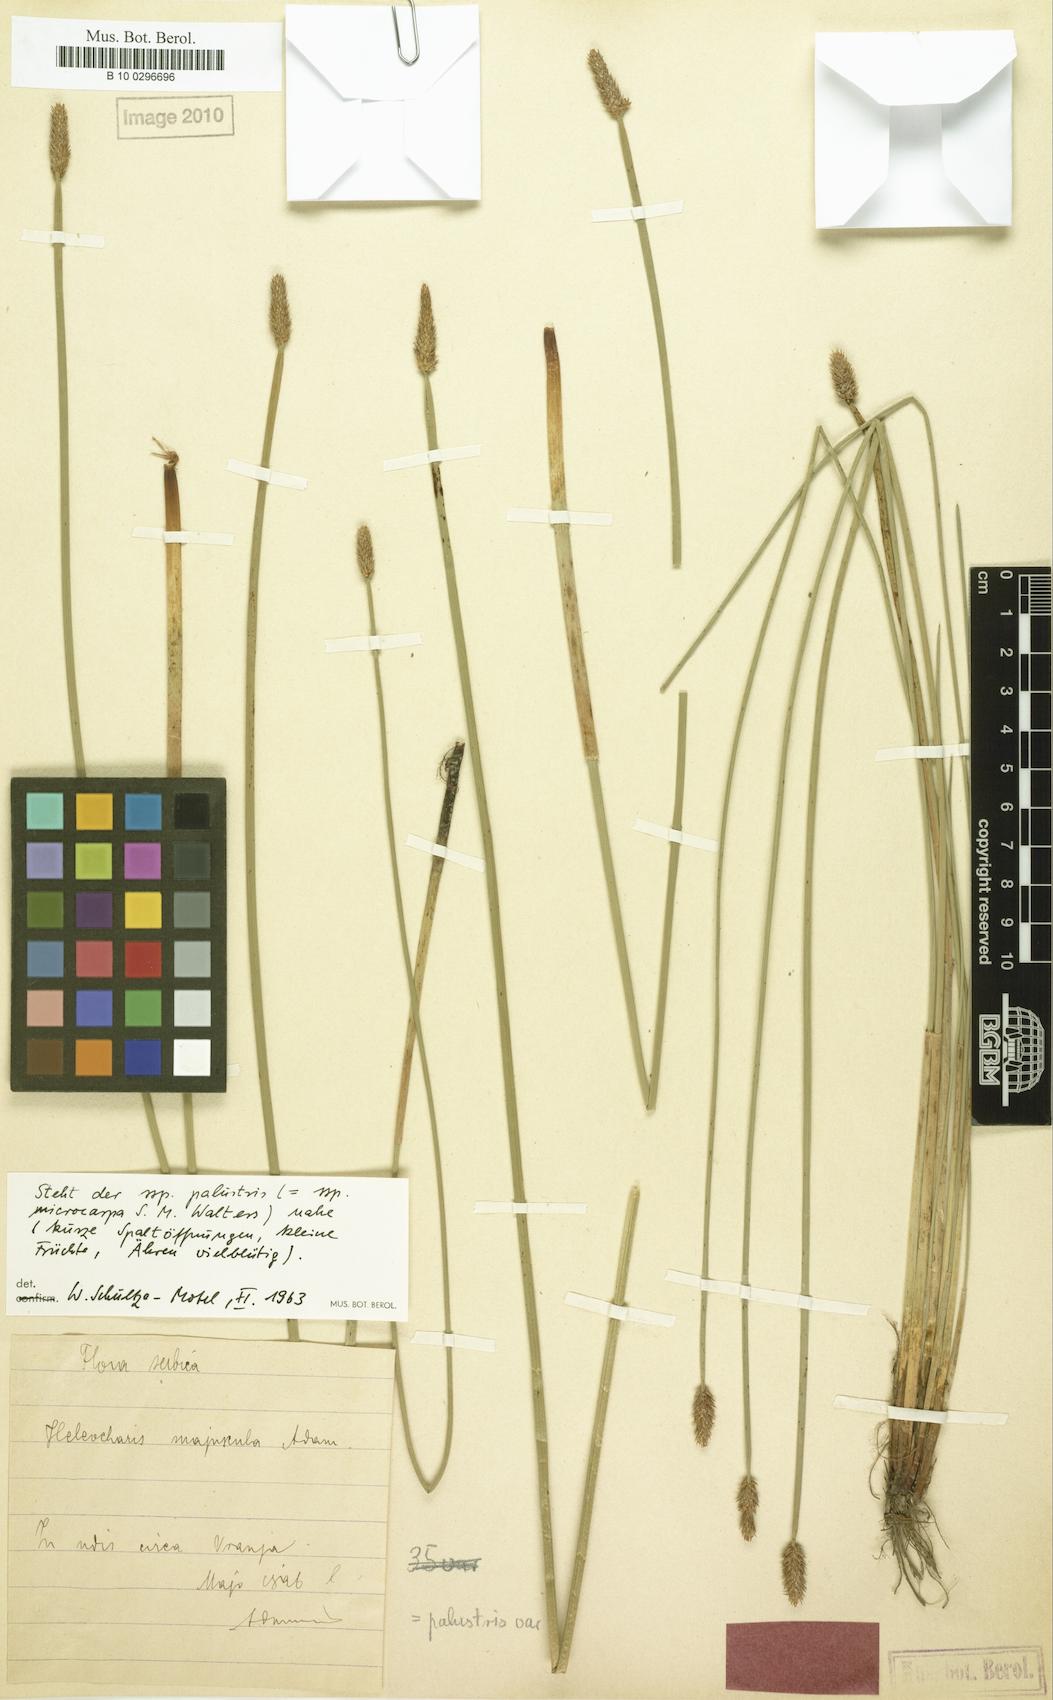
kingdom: Plantae
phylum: Tracheophyta
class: Liliopsida
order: Poales
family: Cyperaceae
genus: Eleocharis
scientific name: Eleocharis palustris
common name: Common spike-rush
